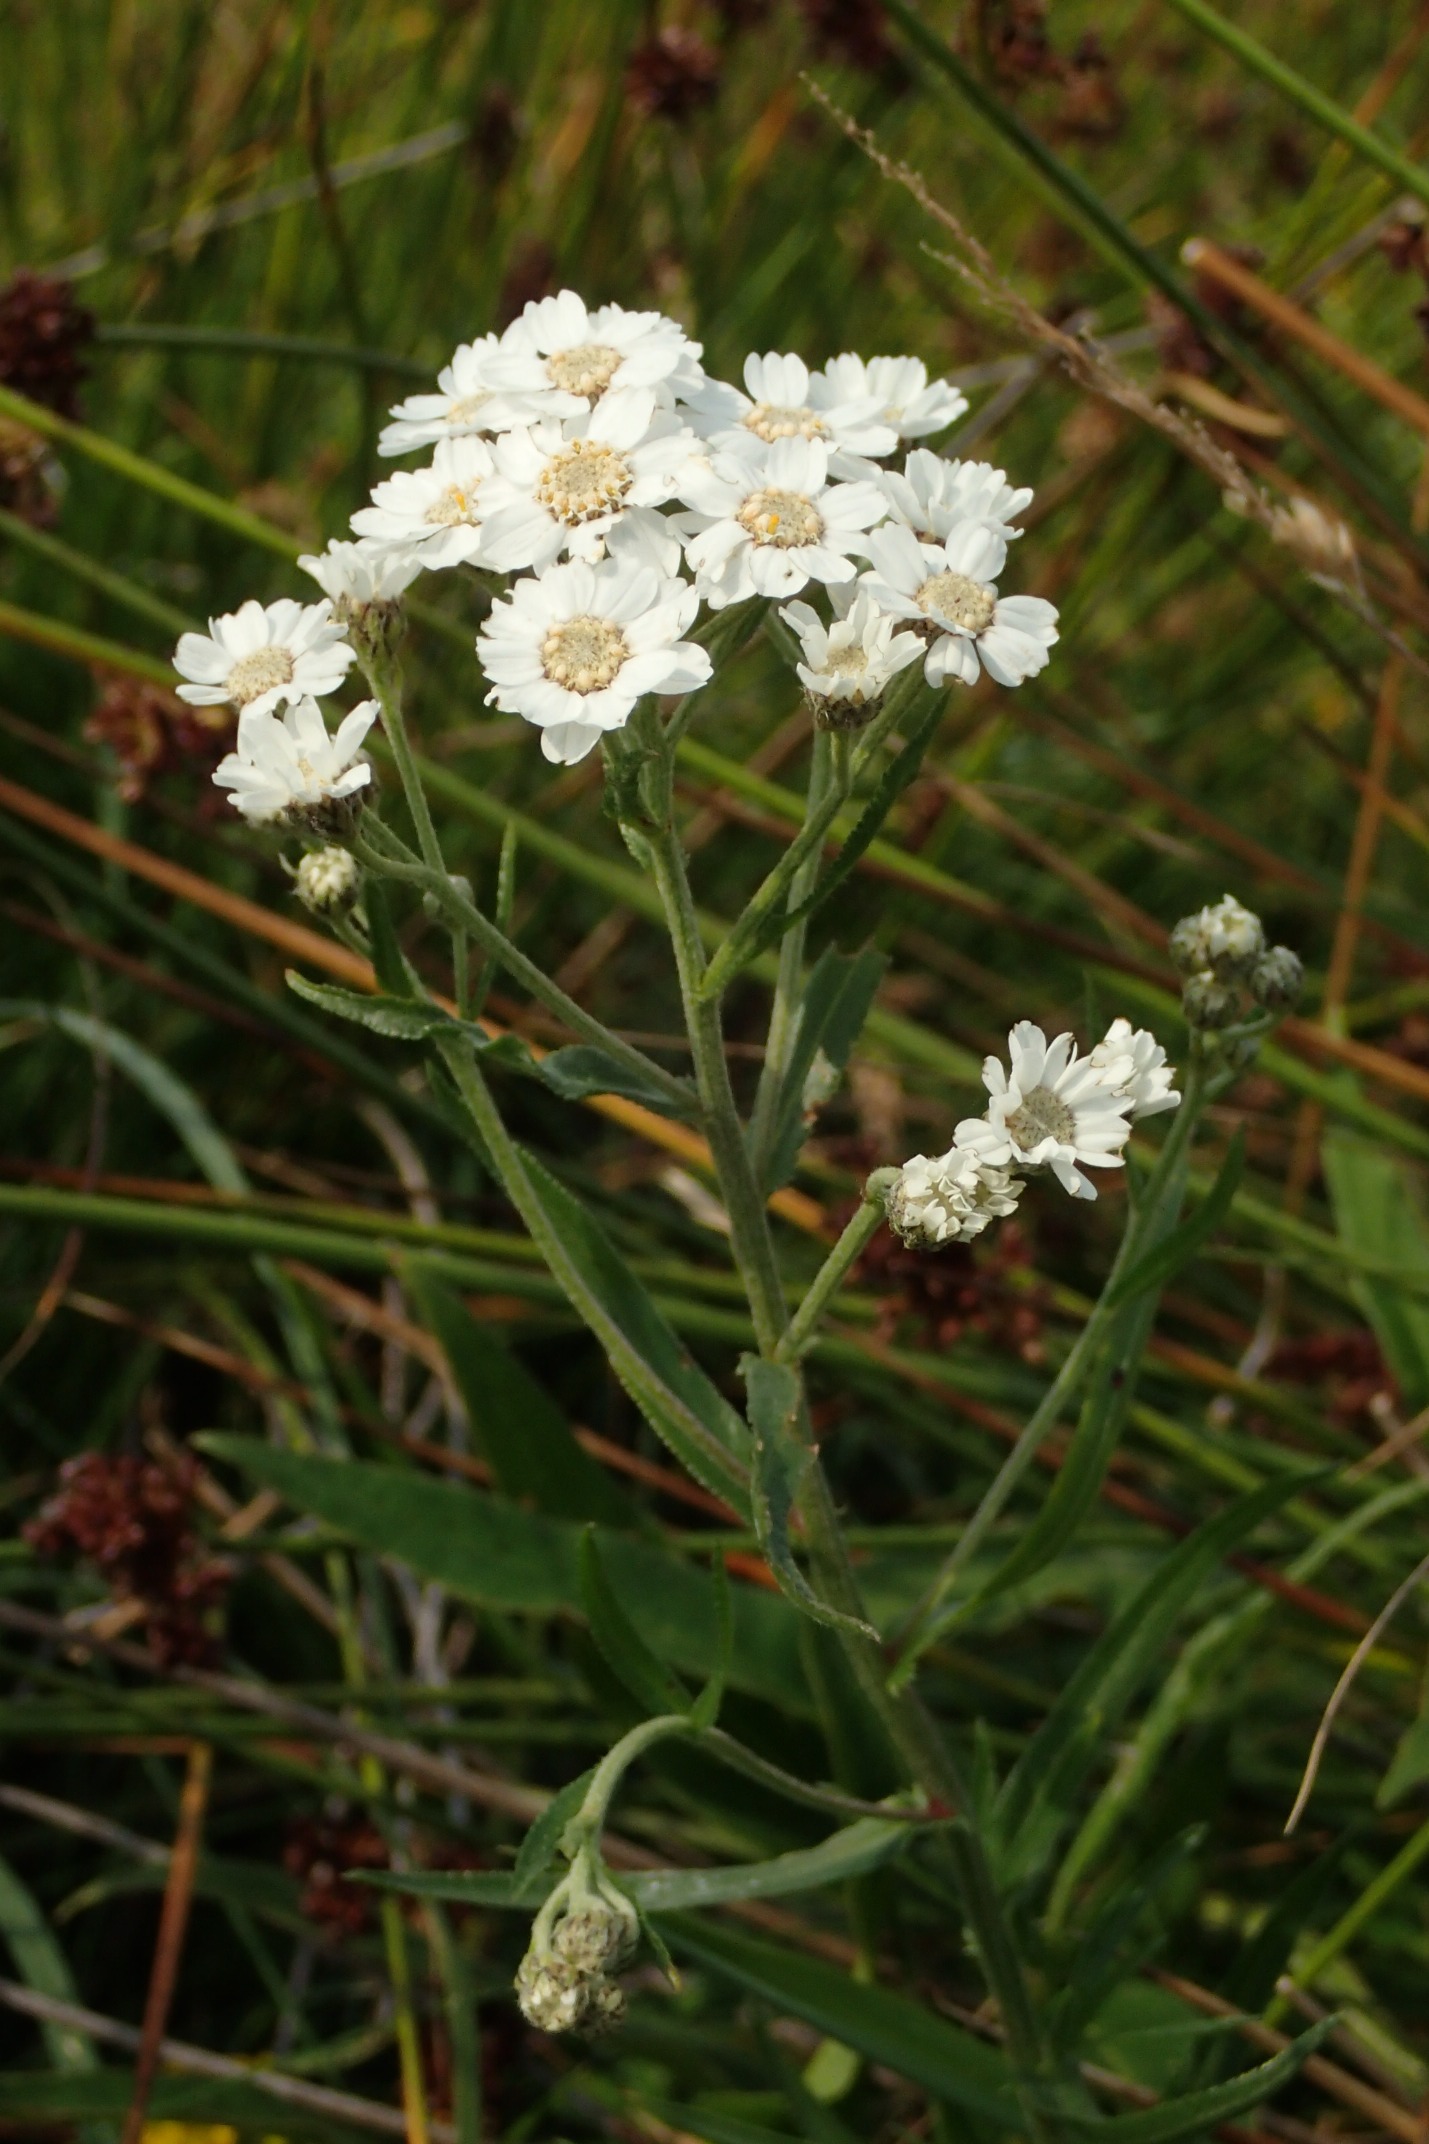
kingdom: Plantae
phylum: Tracheophyta
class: Magnoliopsida
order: Asterales
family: Asteraceae
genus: Achillea
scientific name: Achillea ptarmica
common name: Nyse-røllike
